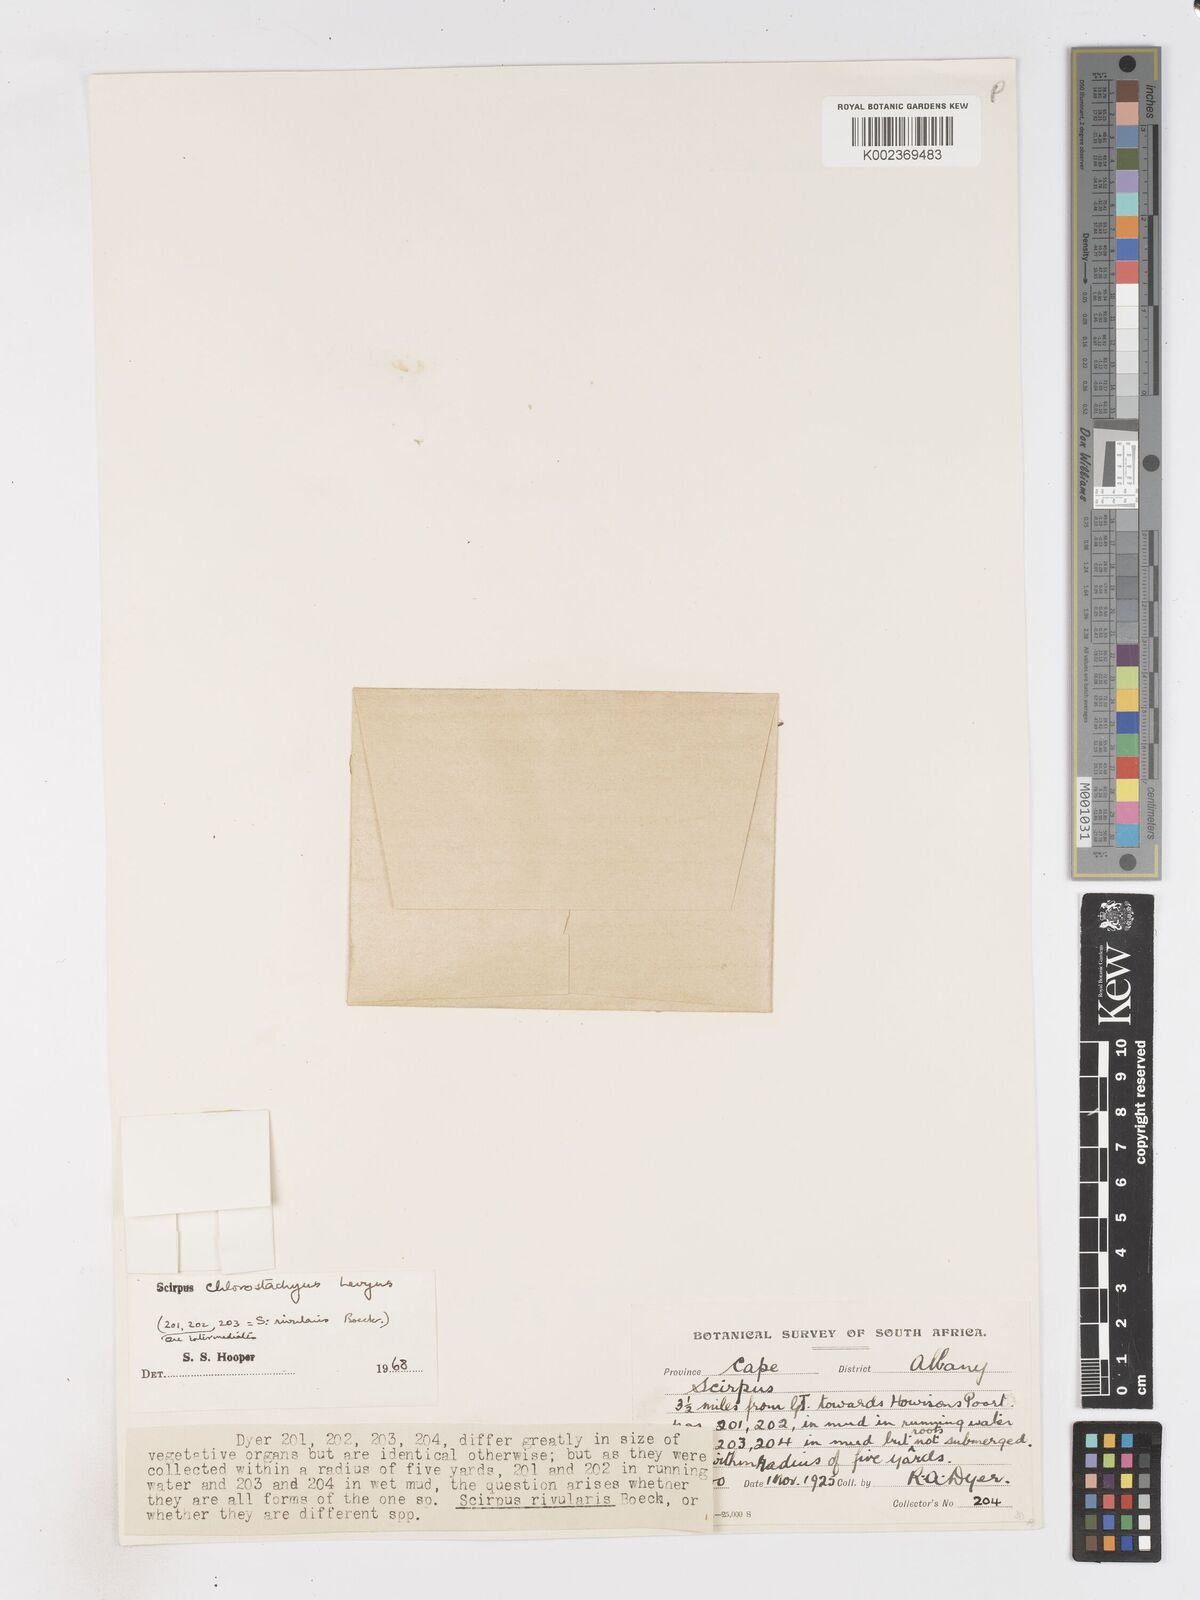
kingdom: Plantae
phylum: Tracheophyta
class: Liliopsida
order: Poales
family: Cyperaceae
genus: Isolepis
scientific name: Isolepis sepulcralis
